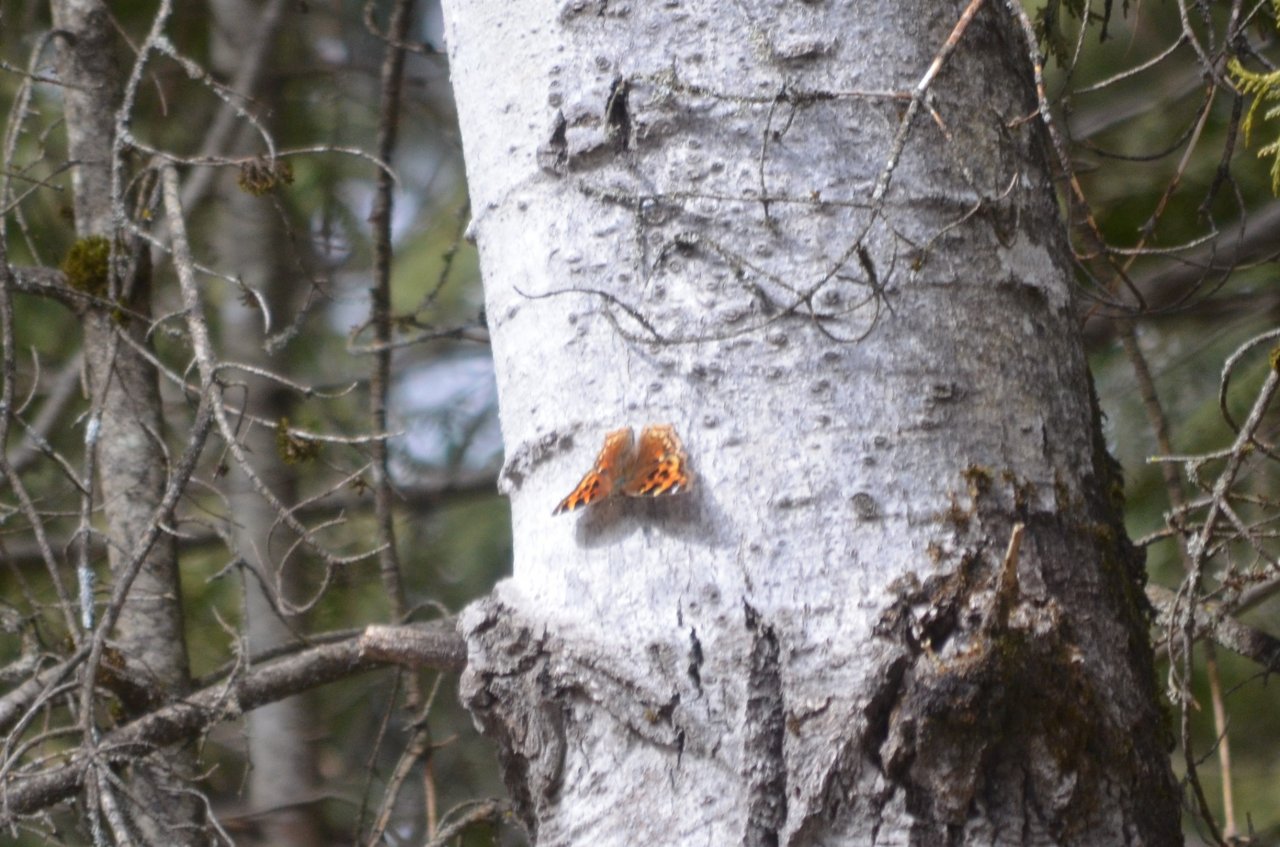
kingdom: Animalia
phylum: Arthropoda
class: Insecta
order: Lepidoptera
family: Nymphalidae
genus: Polygonia
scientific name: Polygonia vaualbum
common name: Compton Tortoiseshell
